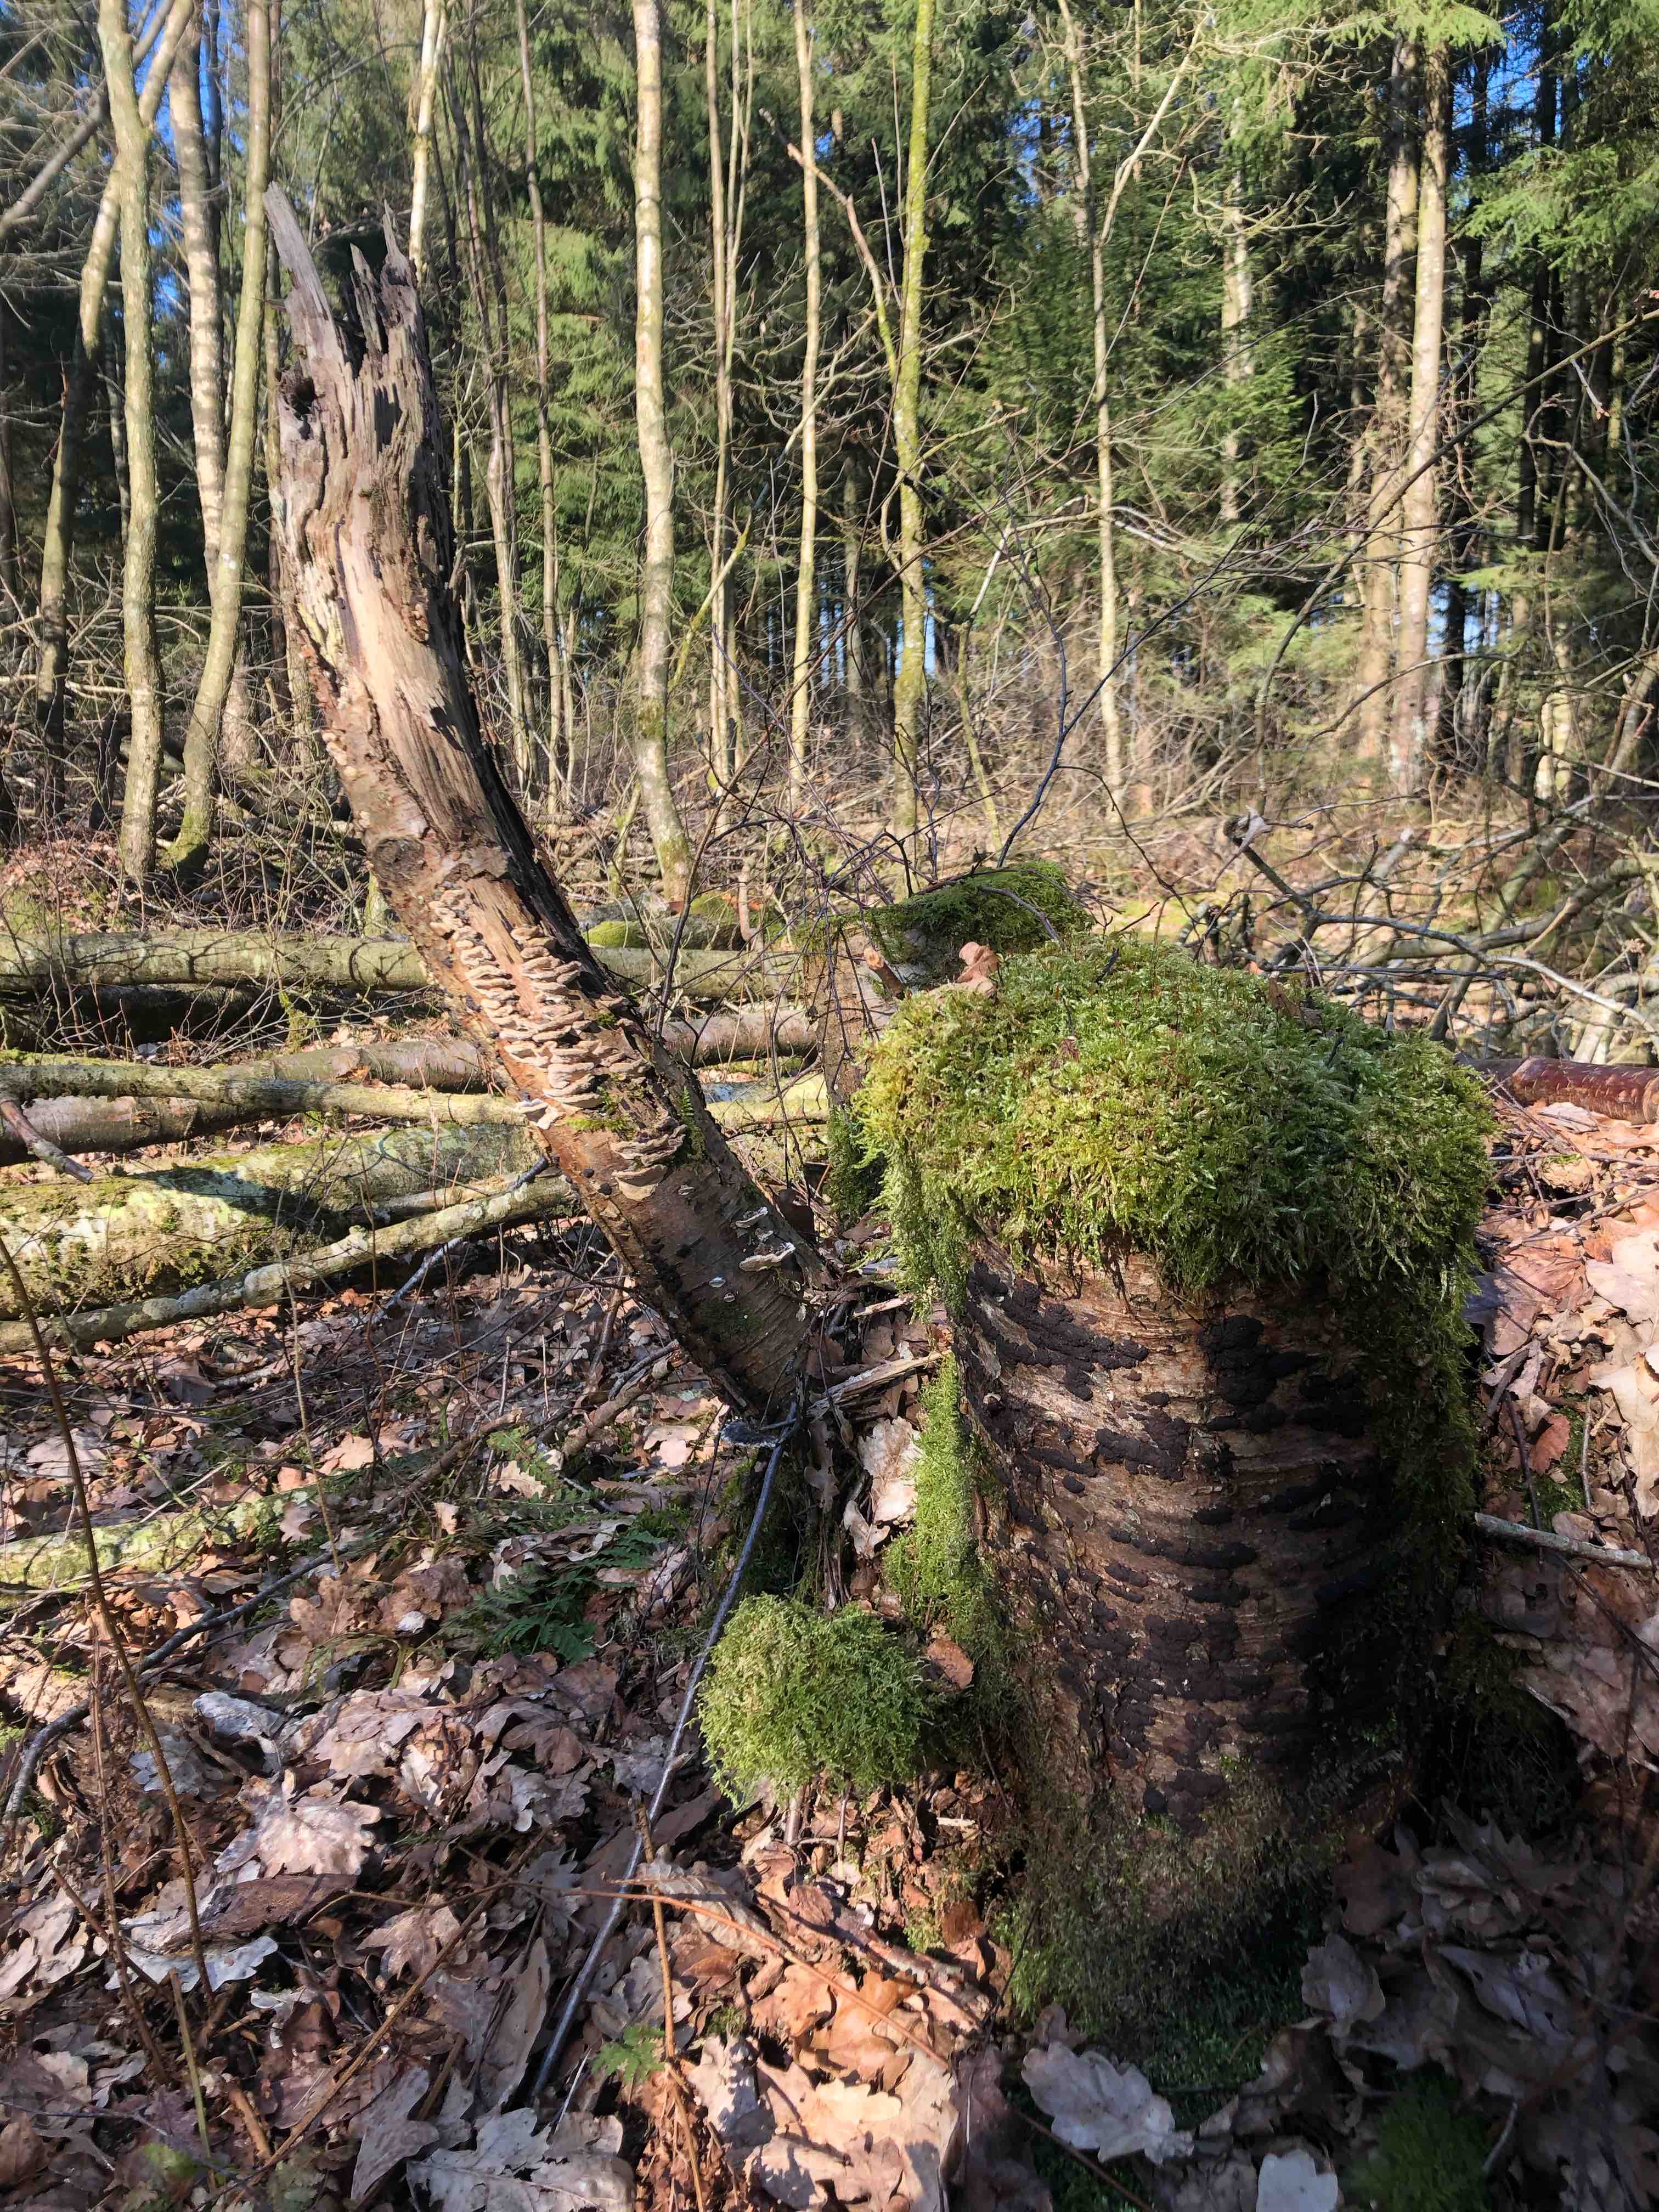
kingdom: Fungi
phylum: Ascomycota
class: Sordariomycetes
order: Xylariales
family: Hypoxylaceae
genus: Jackrogersella
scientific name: Jackrogersella multiformis
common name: foranderlig kulbær
